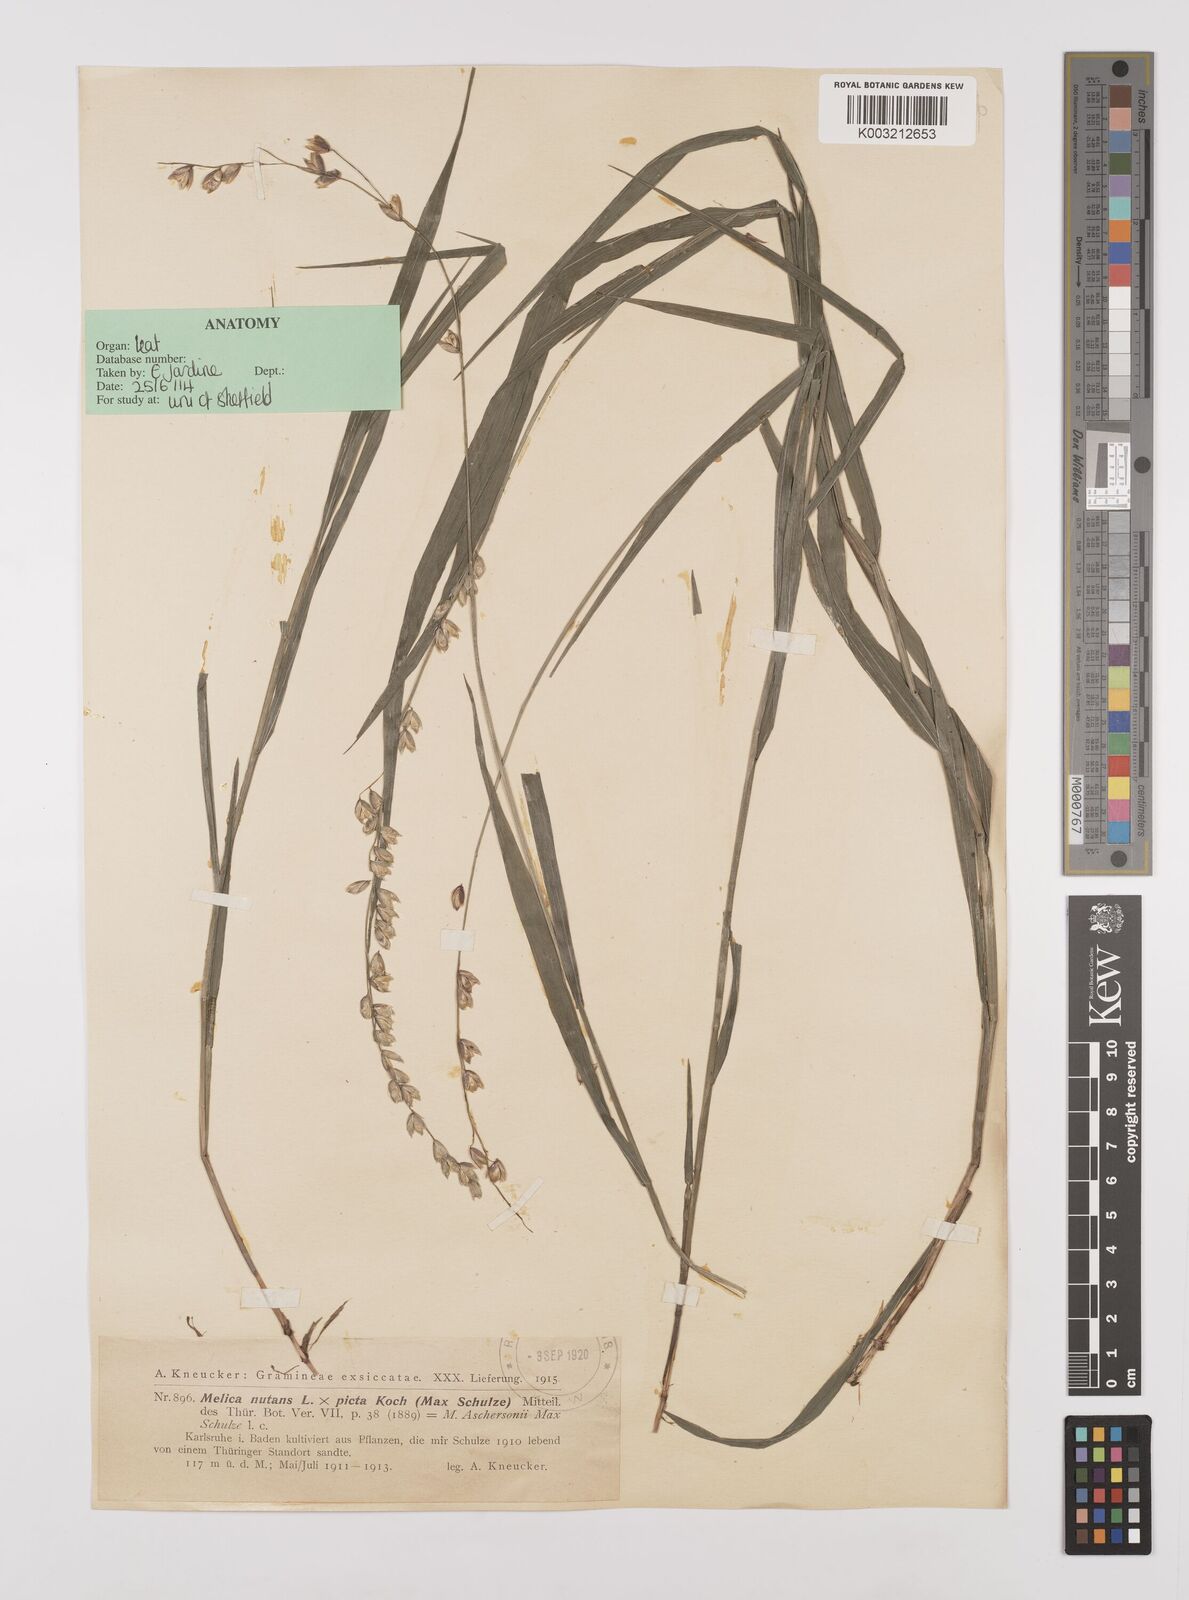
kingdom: Plantae
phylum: Tracheophyta
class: Liliopsida
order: Poales
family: Poaceae
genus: Melica
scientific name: Melica
